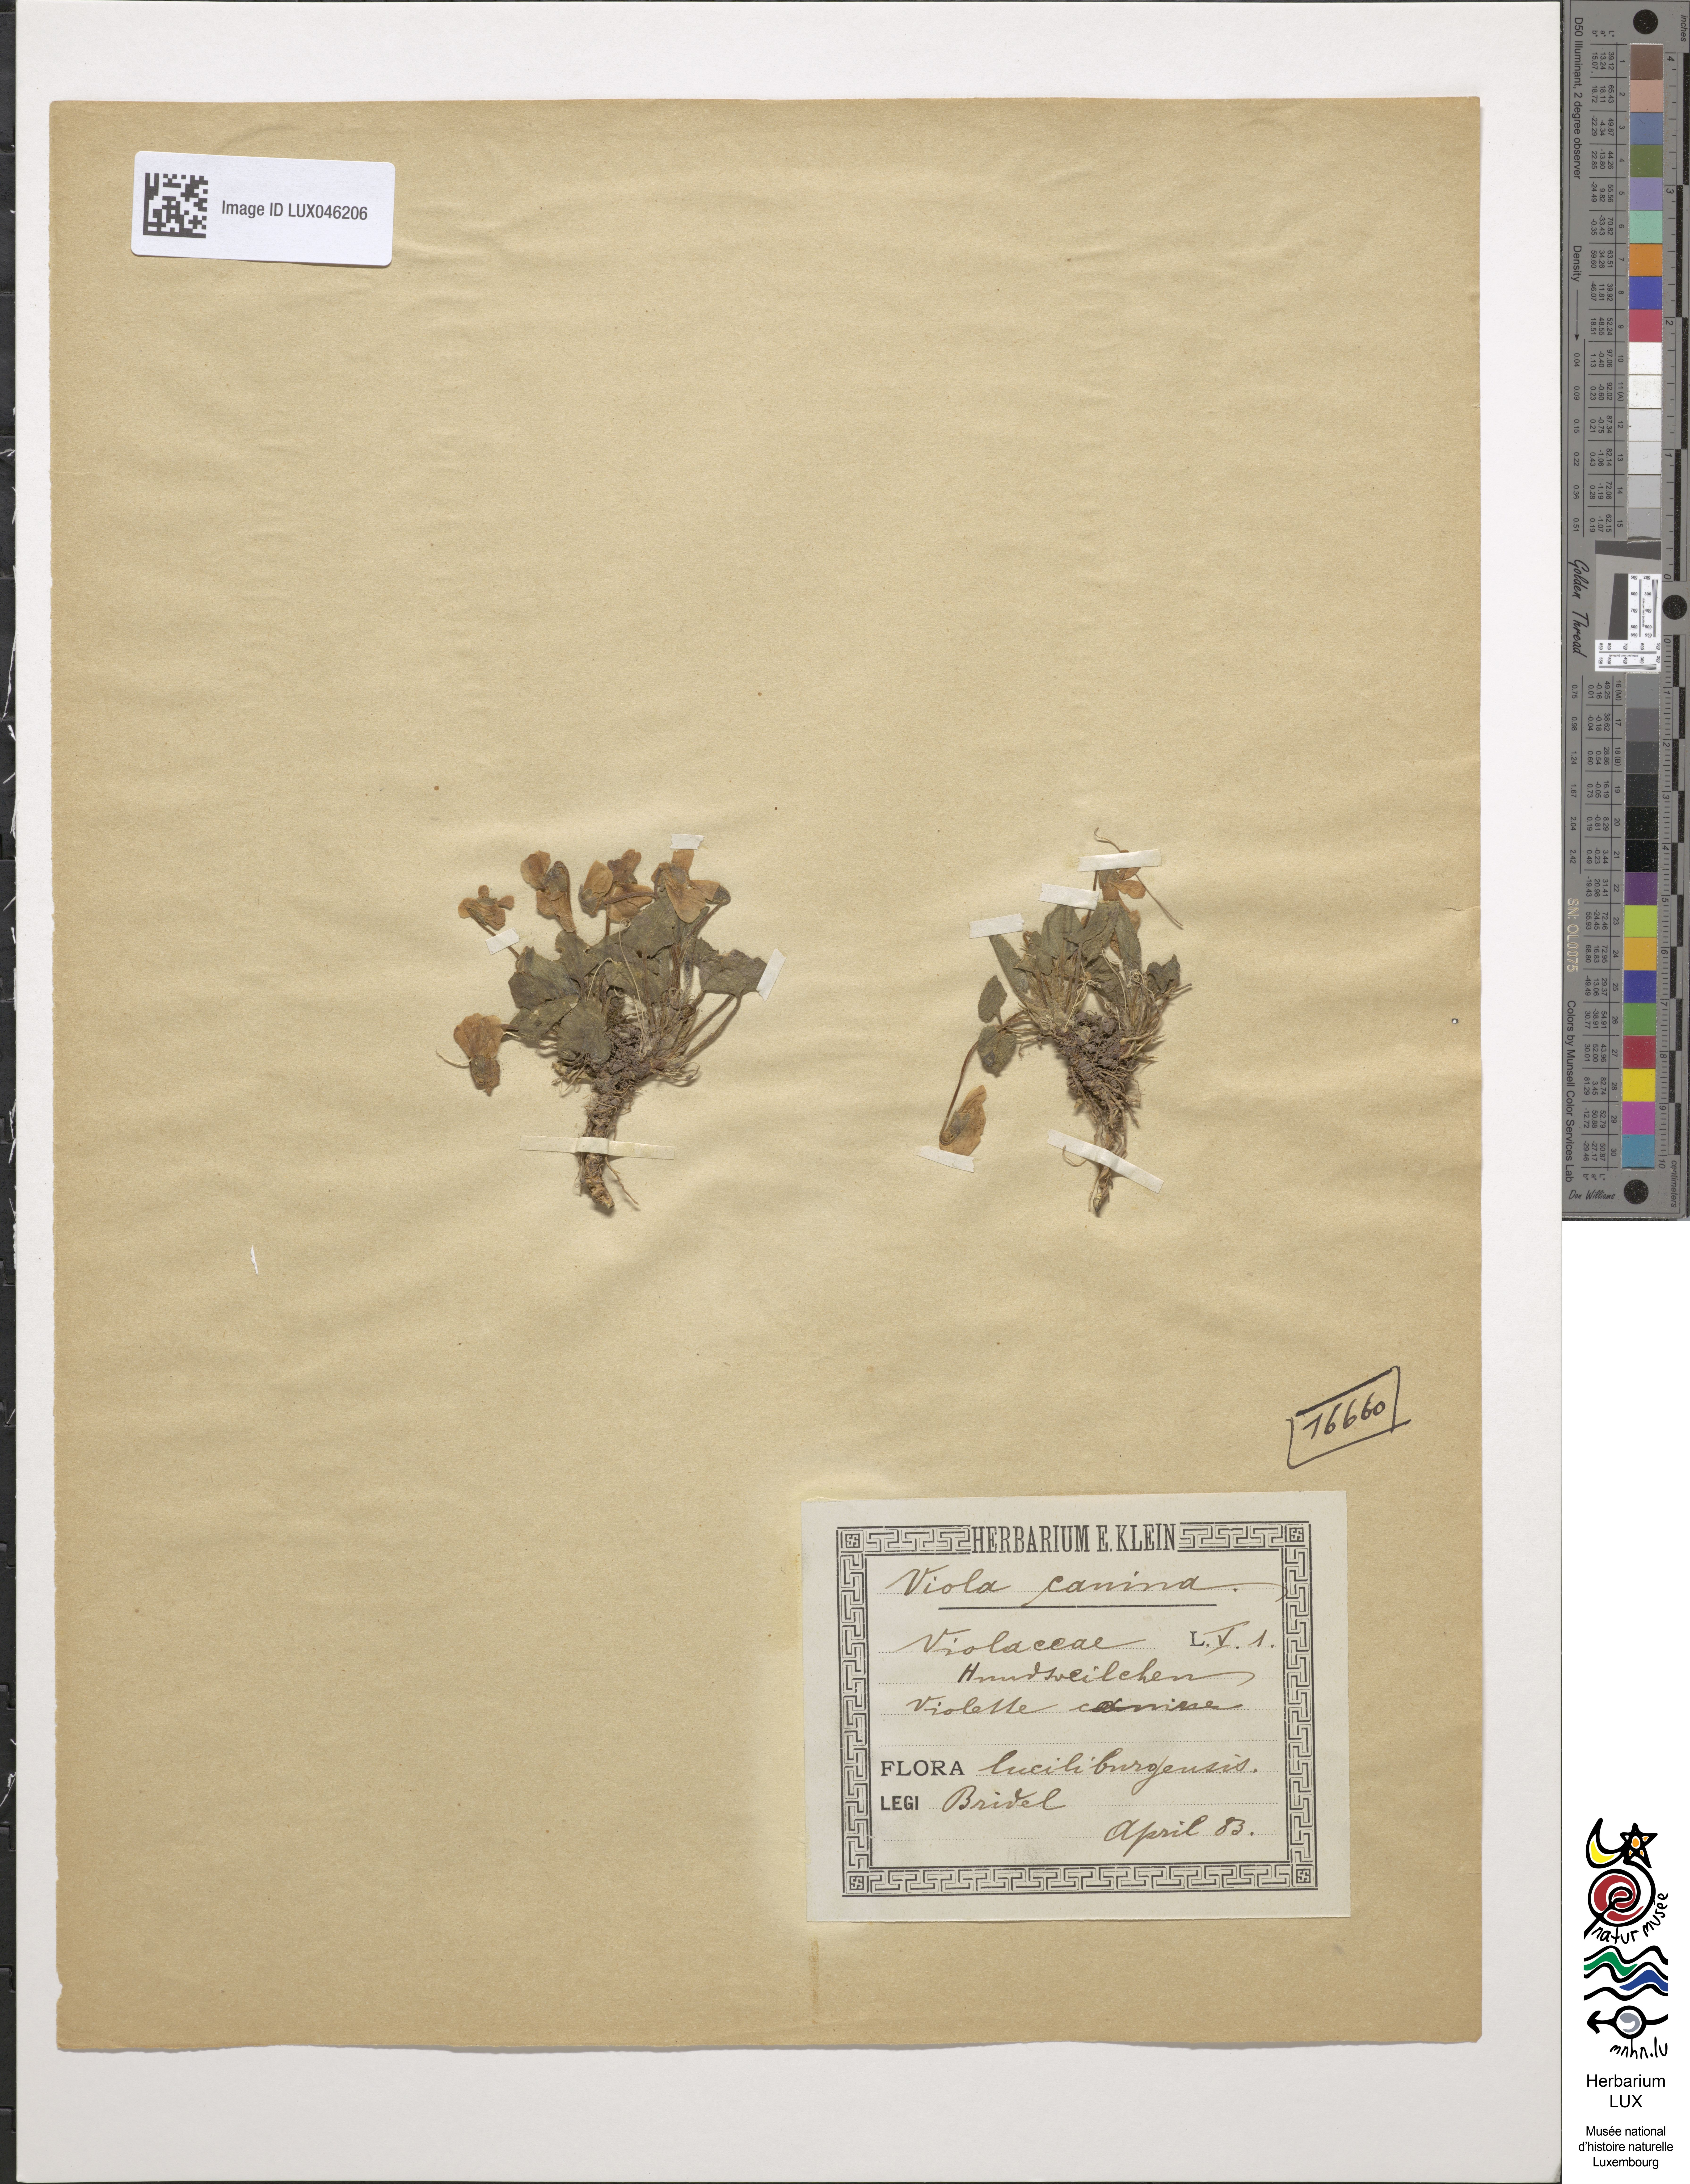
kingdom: Plantae
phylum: Tracheophyta
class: Magnoliopsida
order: Malpighiales
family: Violaceae
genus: Viola
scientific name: Viola canina
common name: Heath dog-violet
